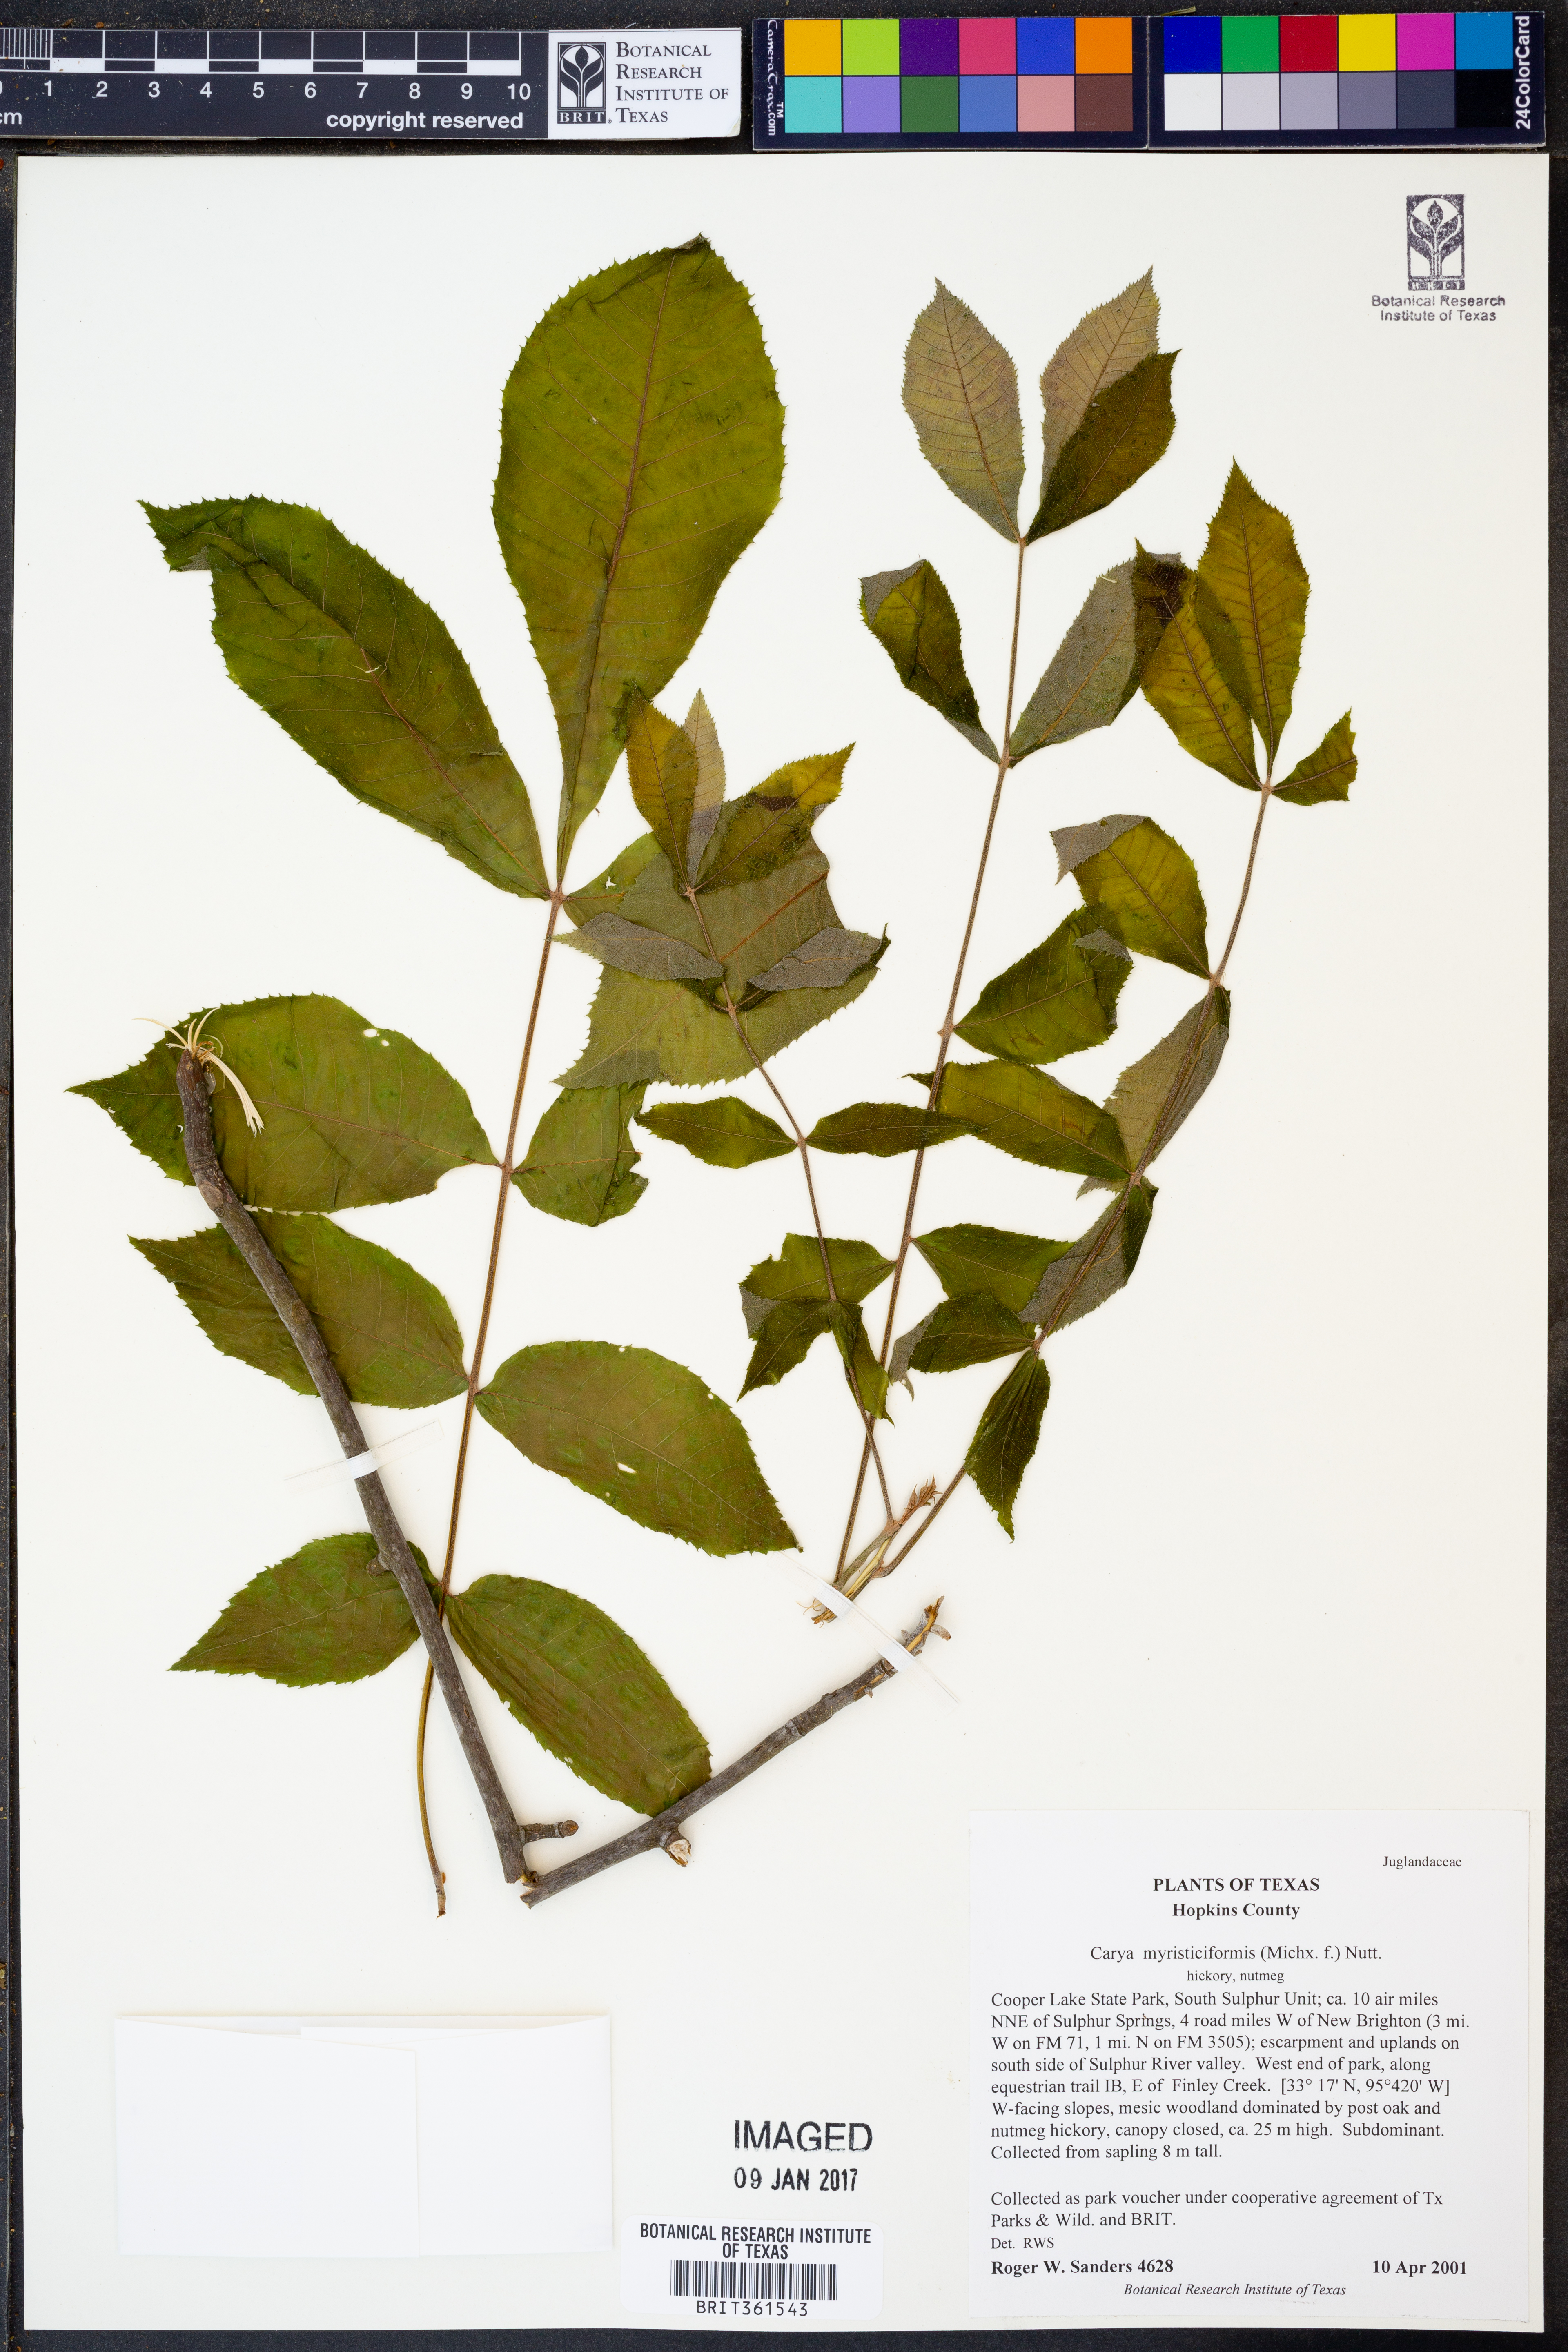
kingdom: Plantae
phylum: Tracheophyta
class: Magnoliopsida
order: Fagales
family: Juglandaceae
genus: Carya
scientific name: Carya myristiciformis
